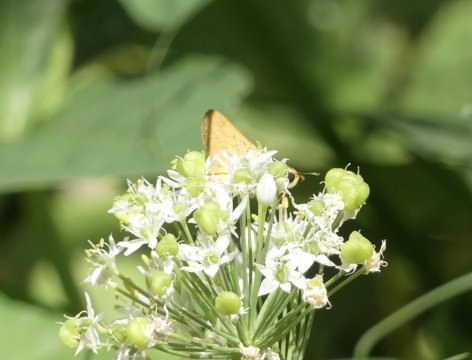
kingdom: Animalia
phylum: Arthropoda
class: Insecta
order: Lepidoptera
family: Hesperiidae
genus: Hylephila
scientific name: Hylephila phyleus
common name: Fiery Skipper
